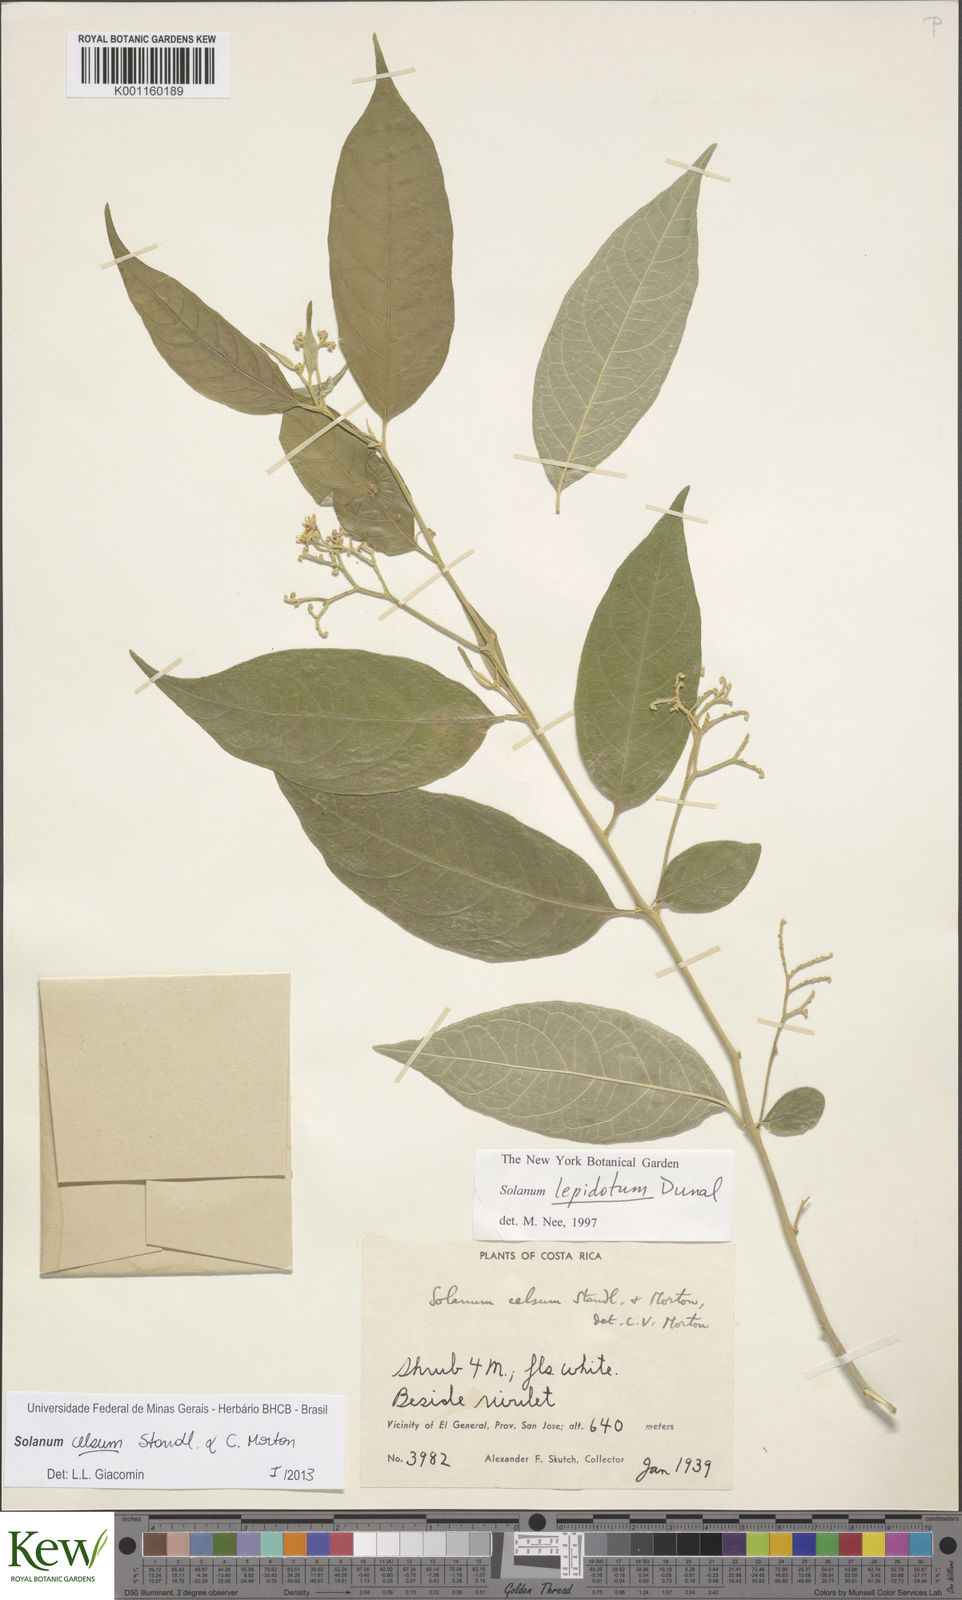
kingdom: Plantae
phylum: Tracheophyta
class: Magnoliopsida
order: Solanales
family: Solanaceae
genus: Solanum
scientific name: Solanum celsum
